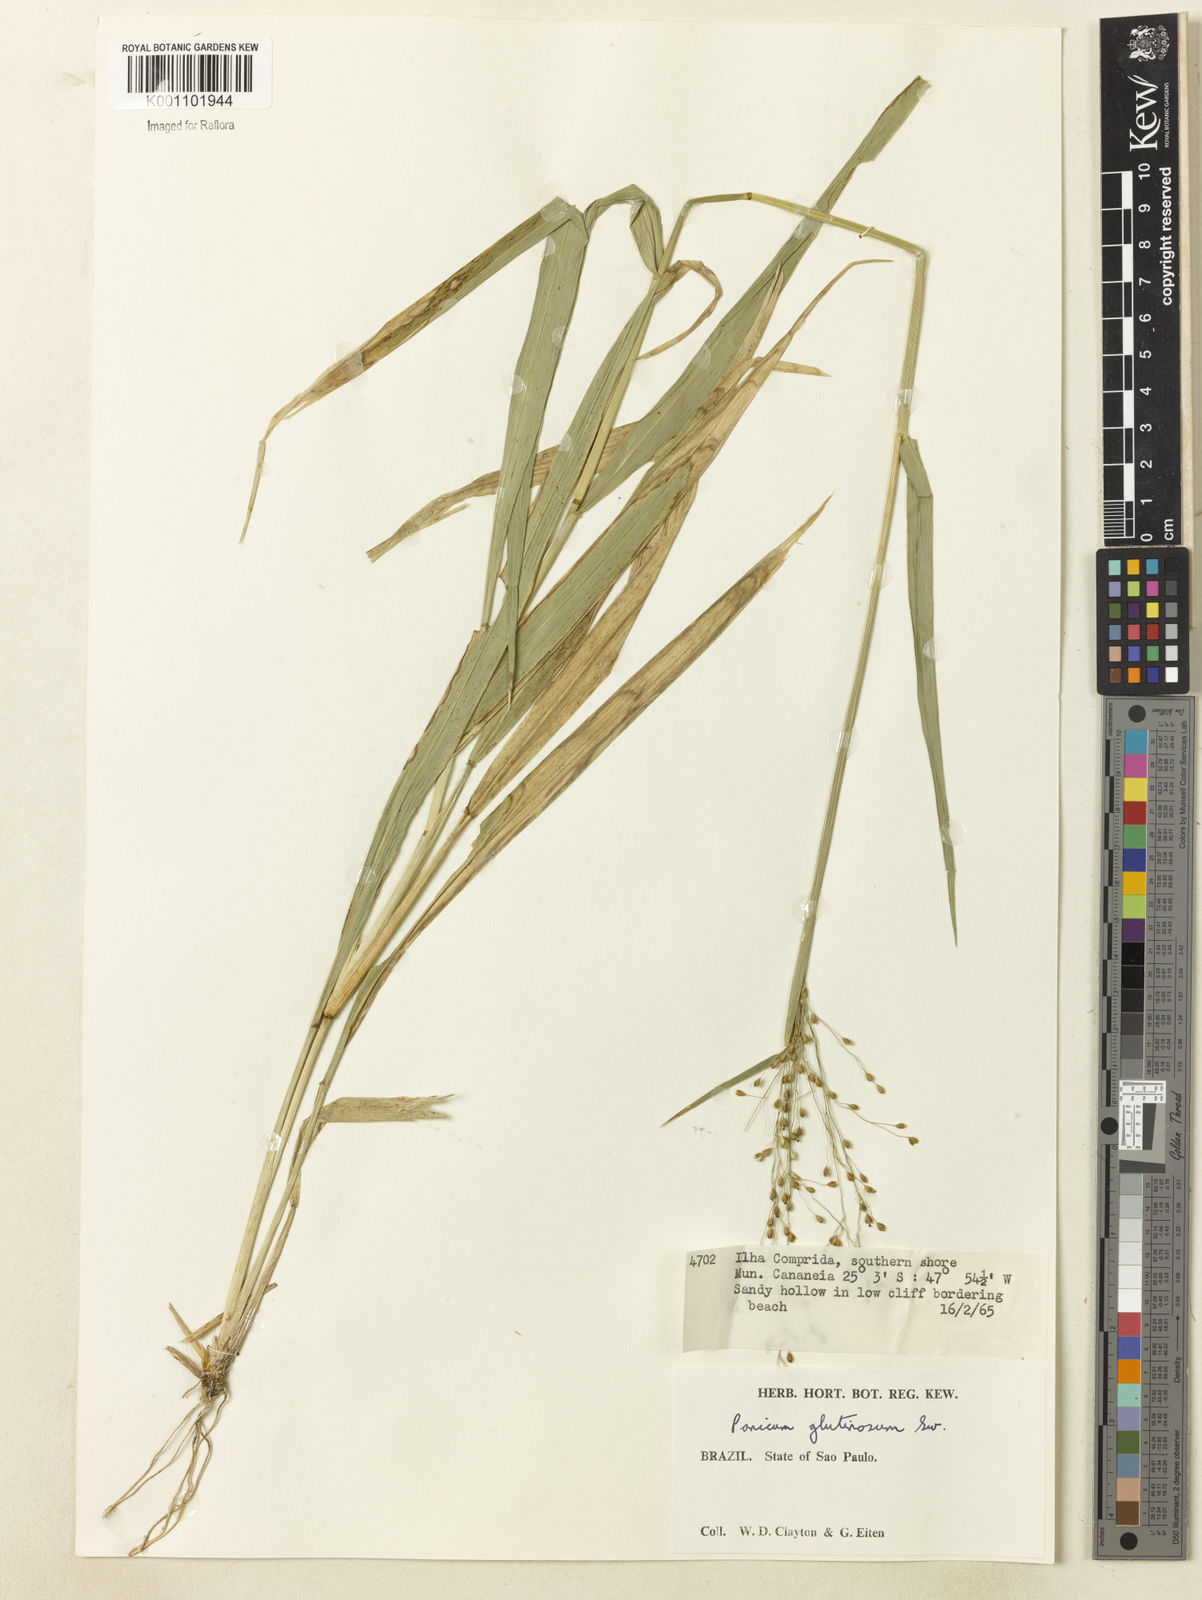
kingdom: Plantae
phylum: Tracheophyta
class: Liliopsida
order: Poales
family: Poaceae
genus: Homolepis
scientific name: Homolepis glutinosa
